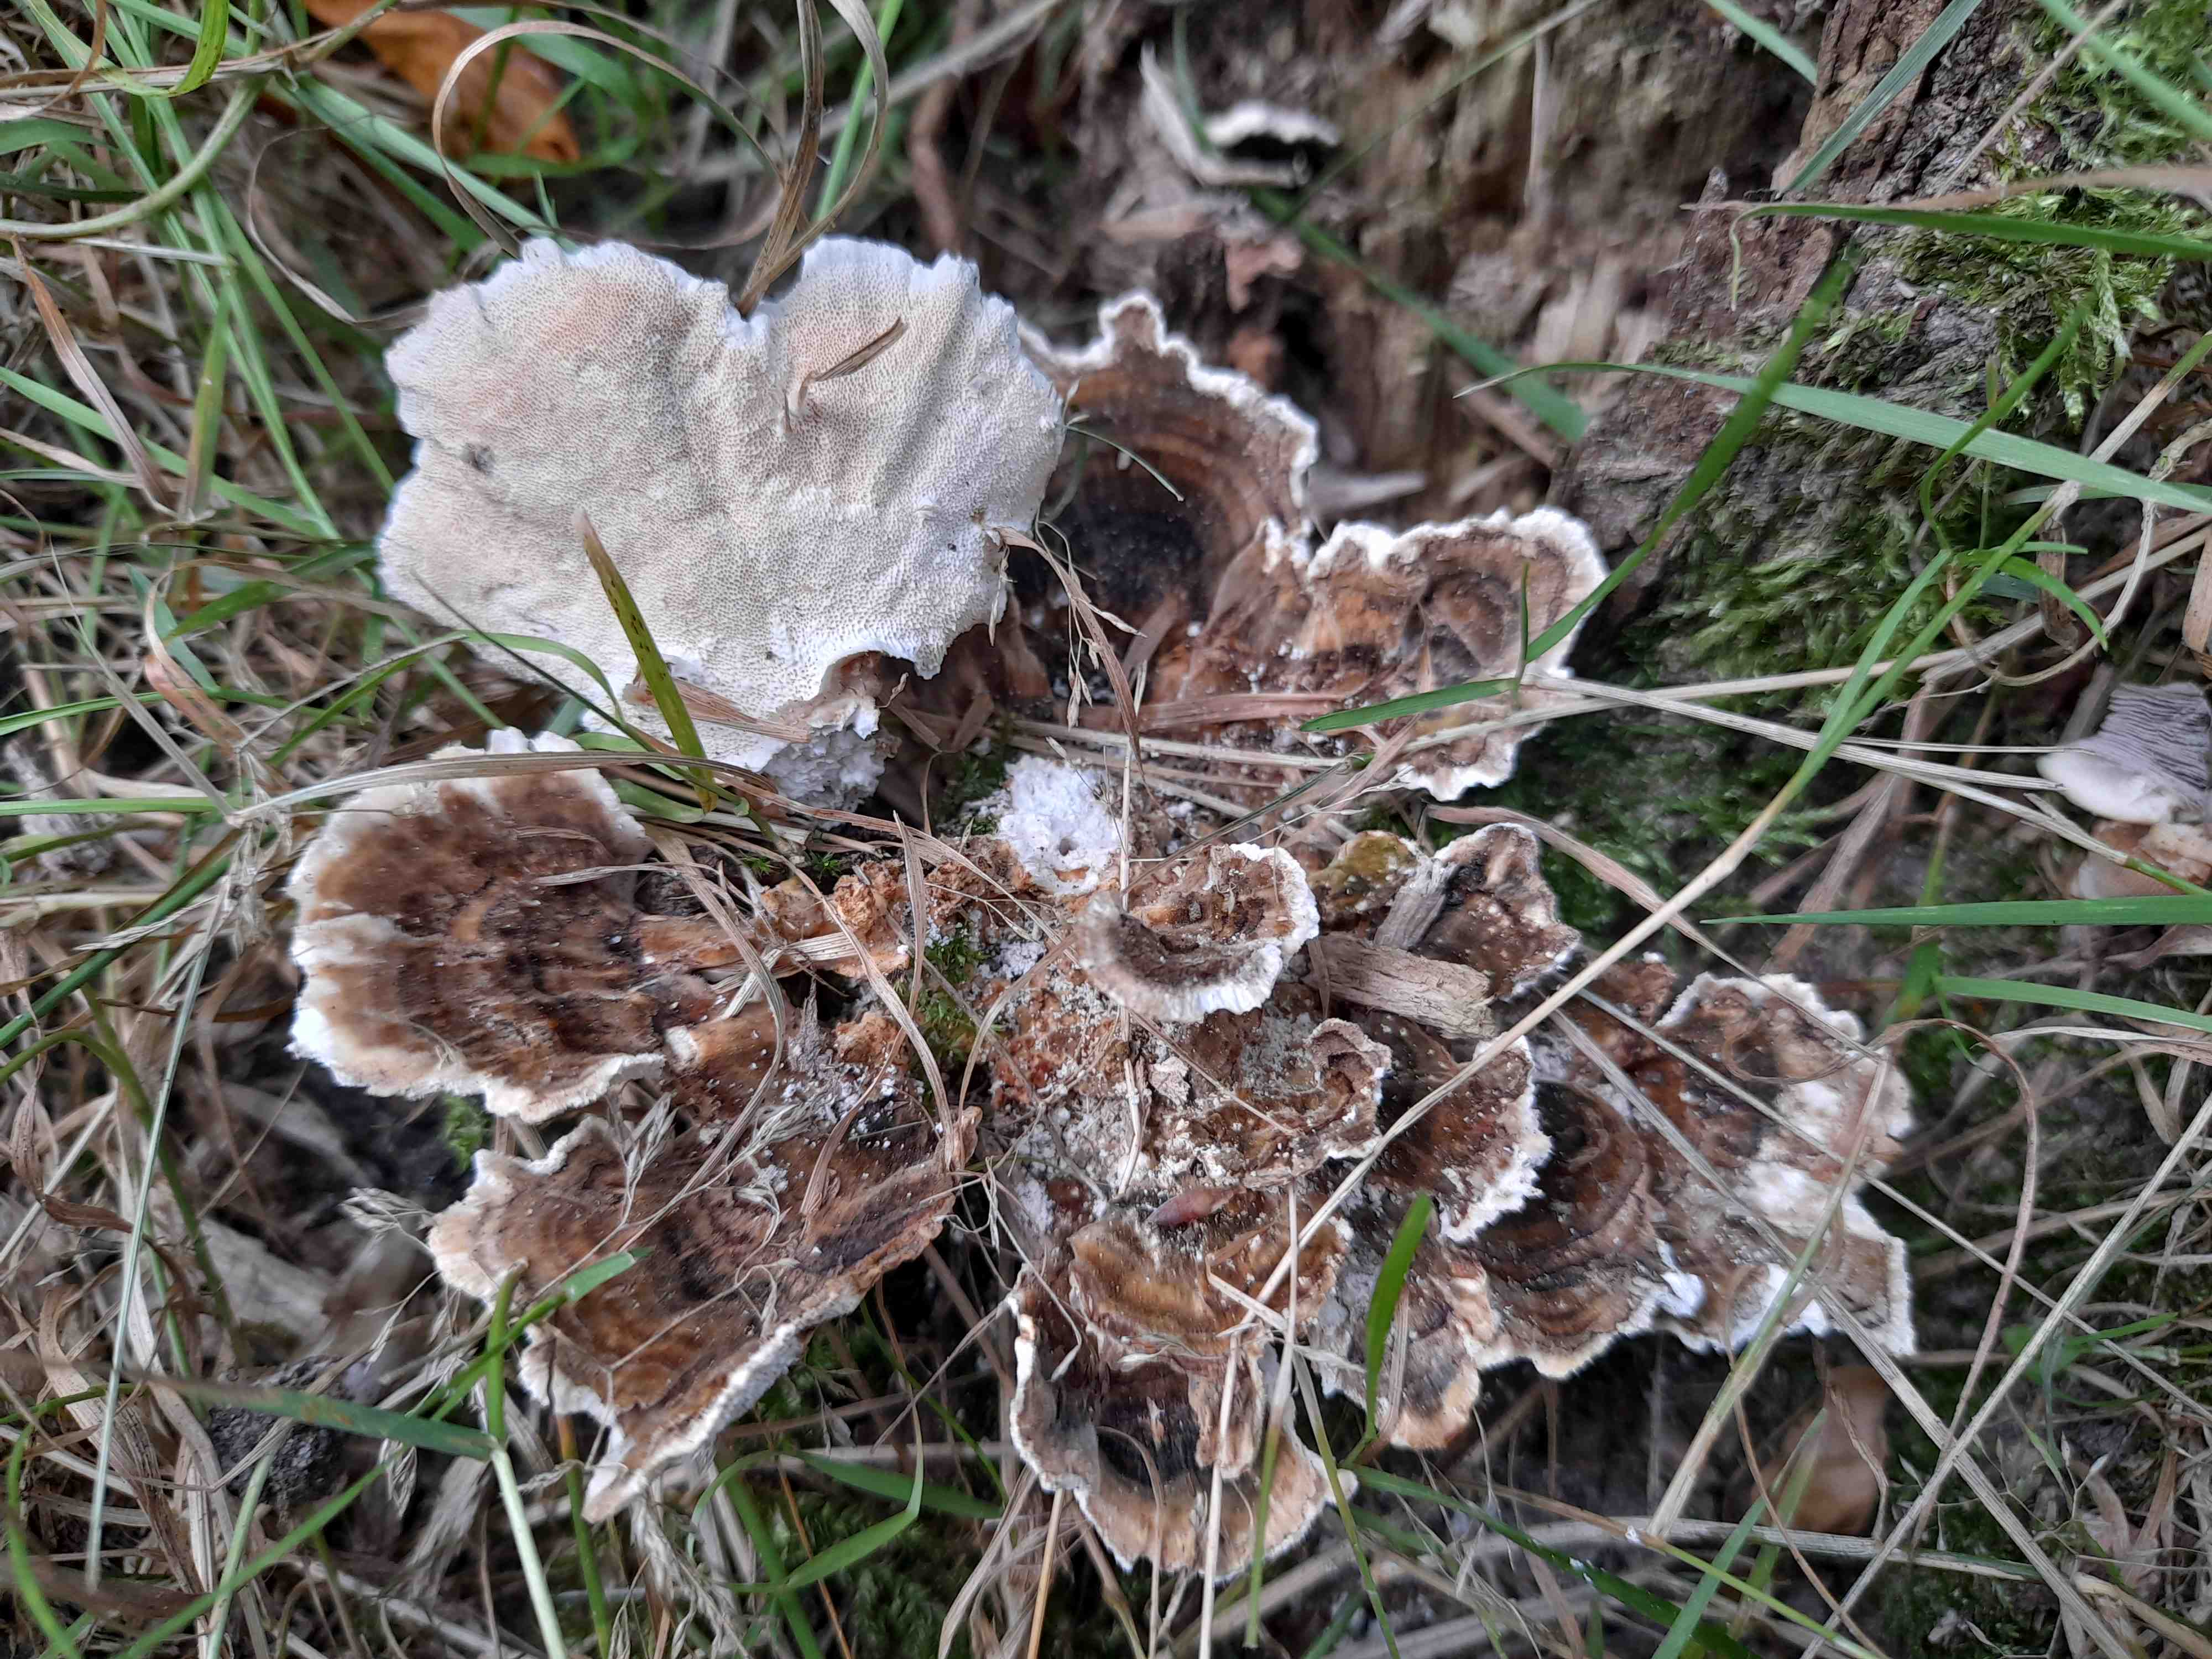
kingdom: Fungi
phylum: Basidiomycota
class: Agaricomycetes
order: Polyporales
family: Polyporaceae
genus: Trametes
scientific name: Trametes versicolor
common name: broget læderporesvamp
